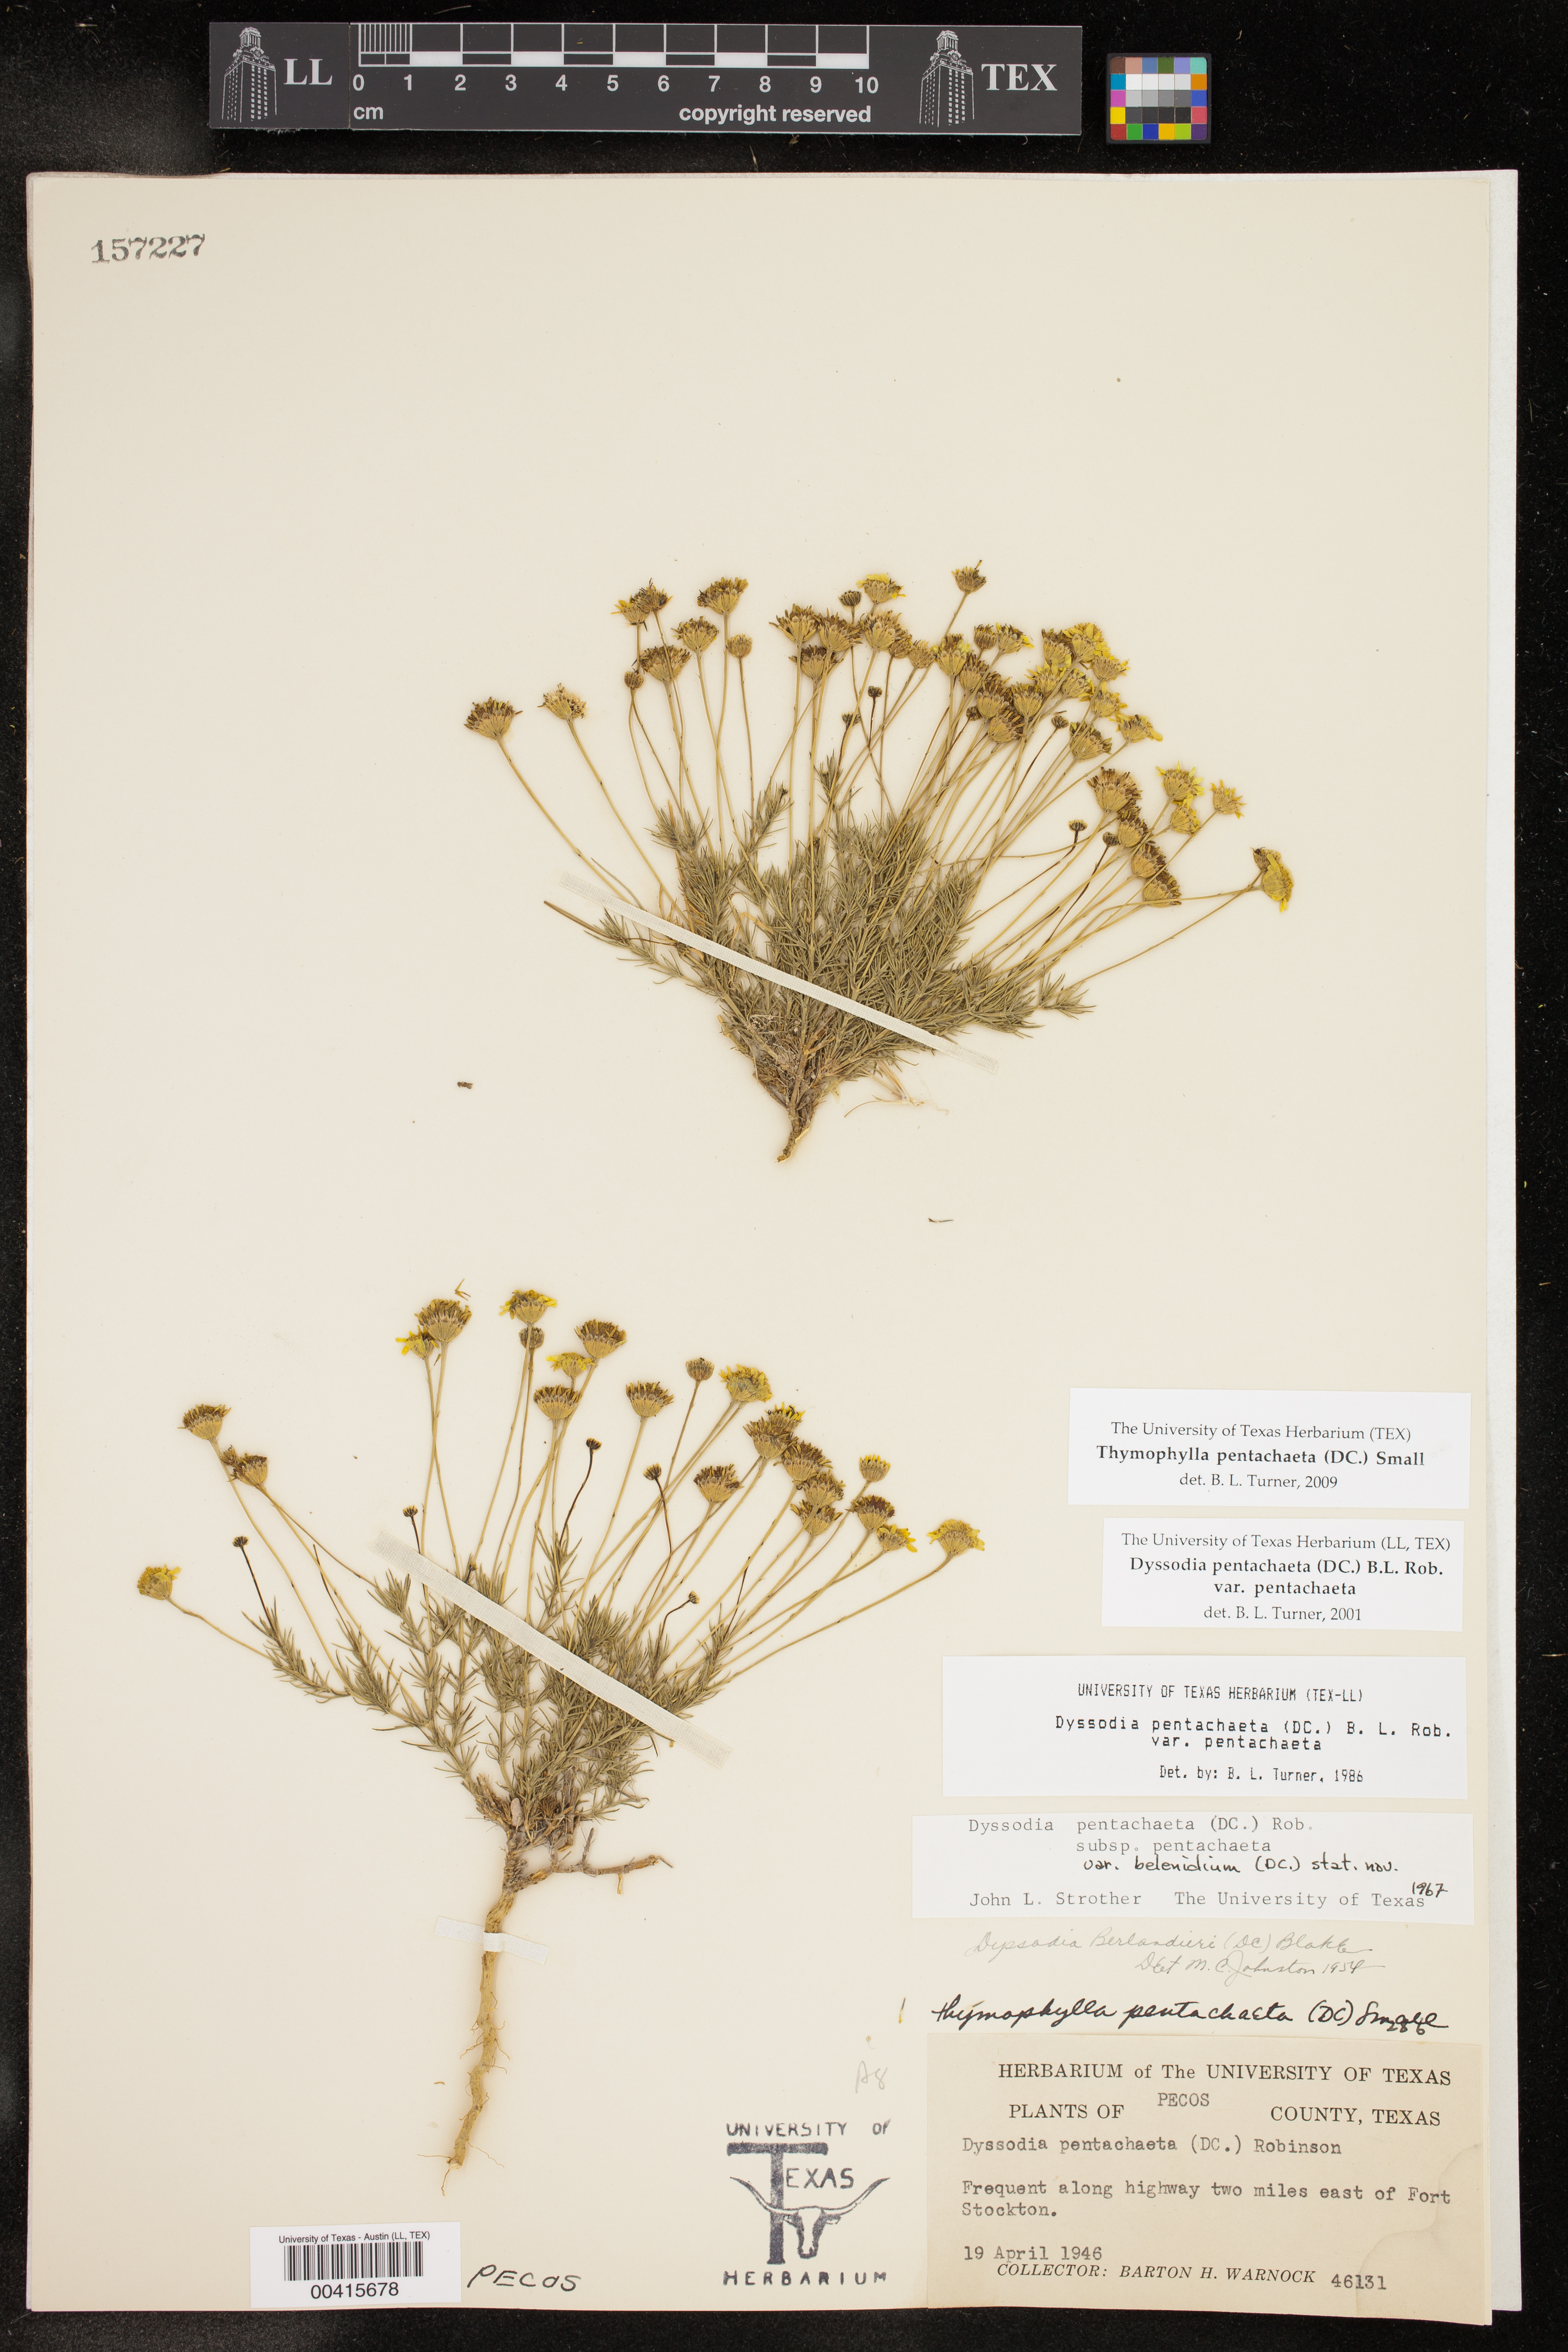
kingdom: Plantae
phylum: Tracheophyta
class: Magnoliopsida
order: Asterales
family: Asteraceae
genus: Thymophylla
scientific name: Thymophylla pentachaeta
